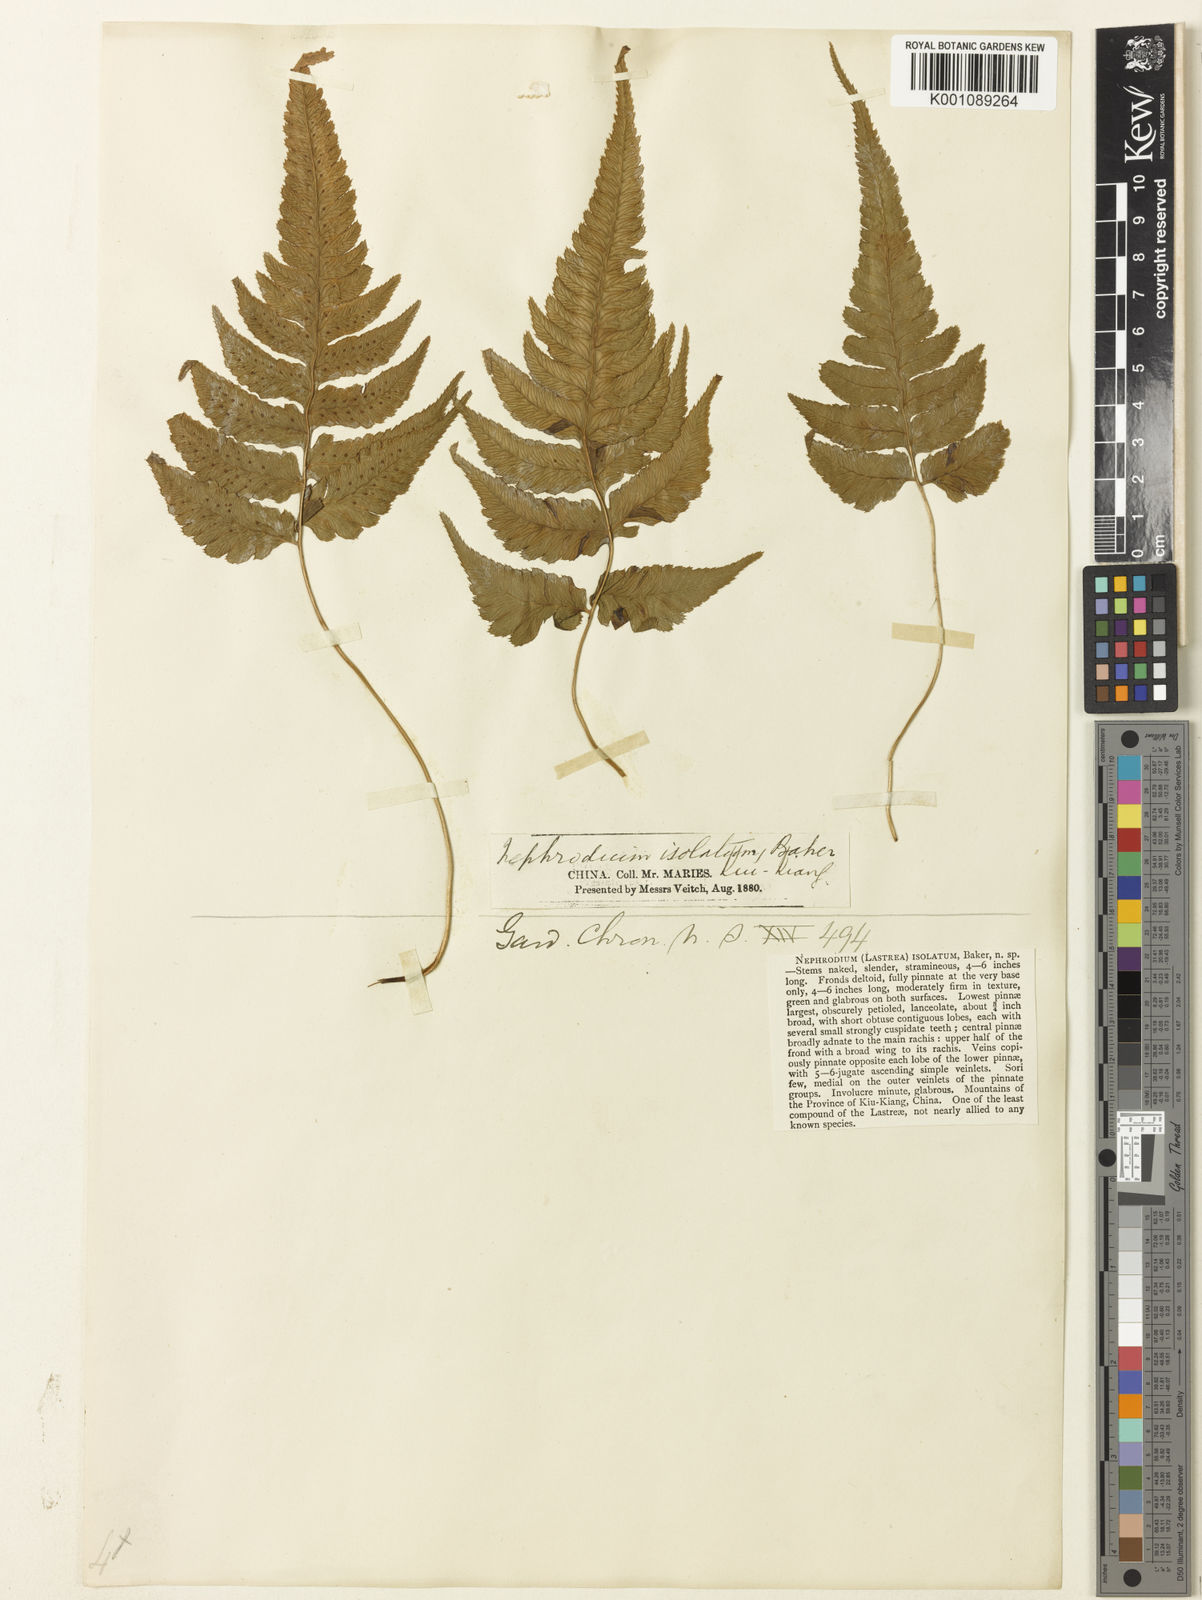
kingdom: Plantae
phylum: Tracheophyta
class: Polypodiopsida
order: Polypodiales
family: Athyriaceae
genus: Anisocampium
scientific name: Anisocampium sheareri
